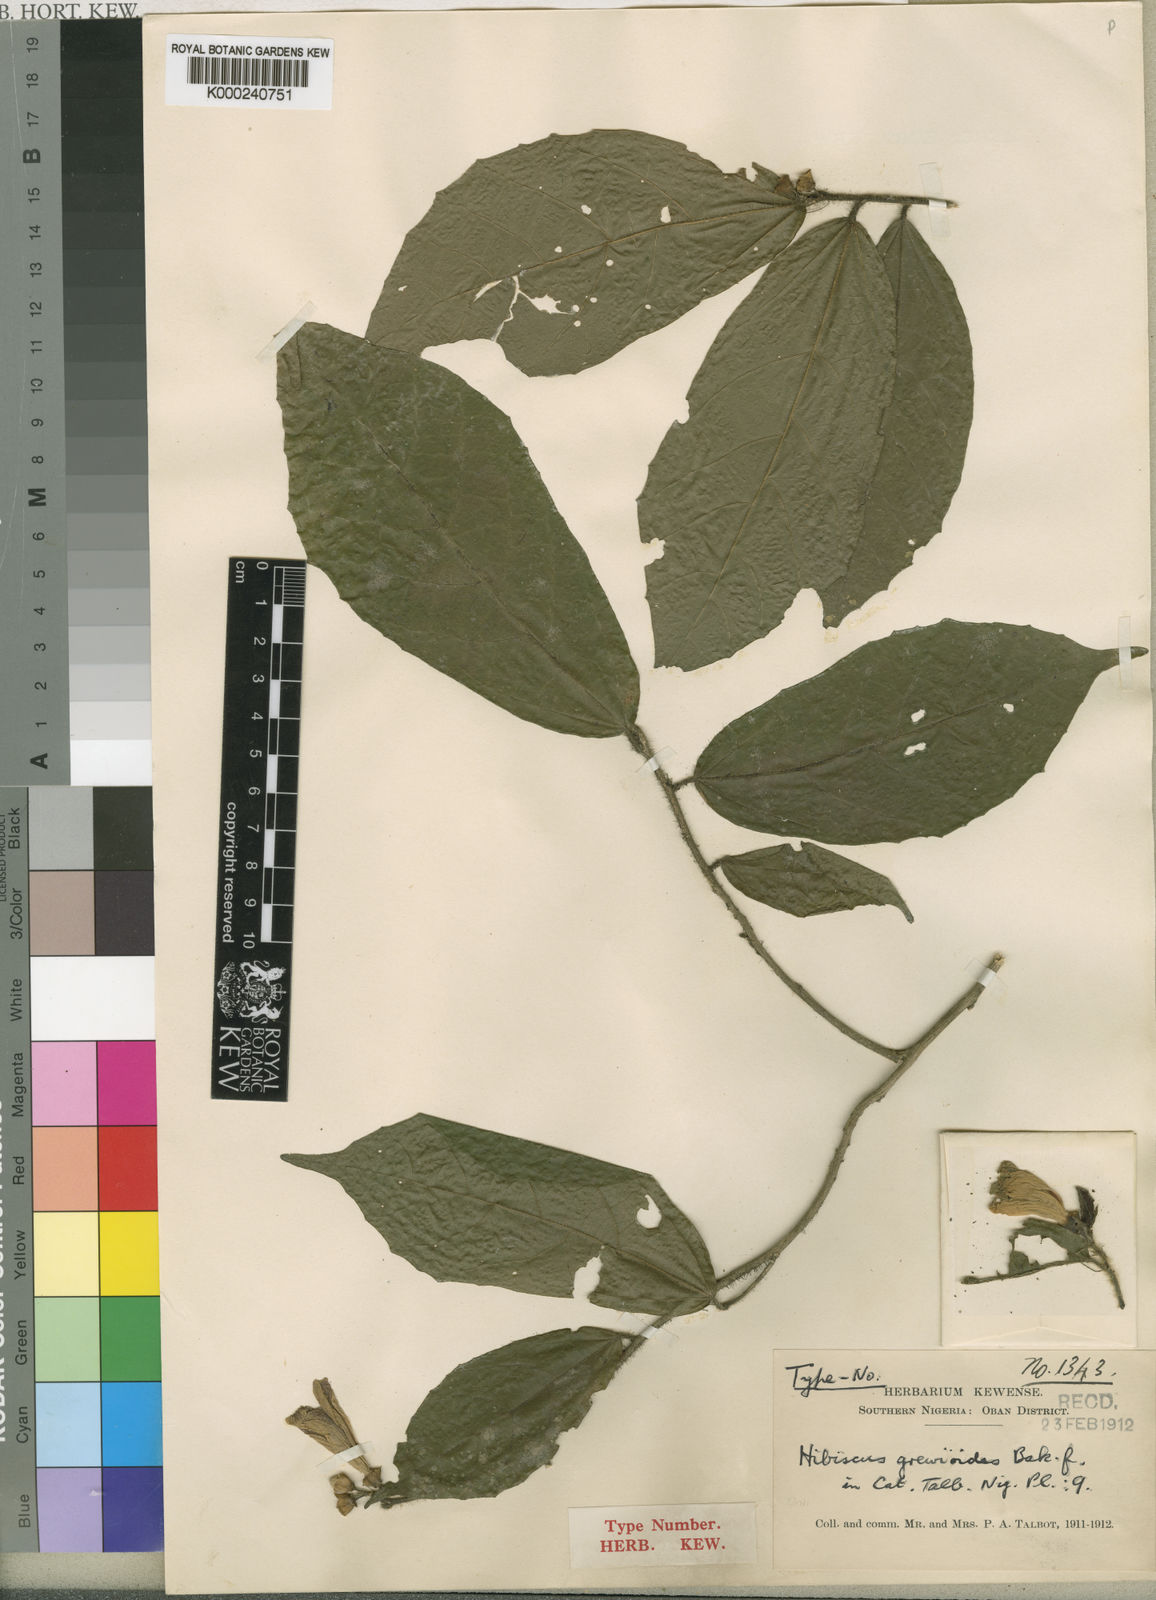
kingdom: Plantae
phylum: Tracheophyta
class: Magnoliopsida
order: Malvales
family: Malvaceae
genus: Hibiscus
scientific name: Hibiscus grewioides
